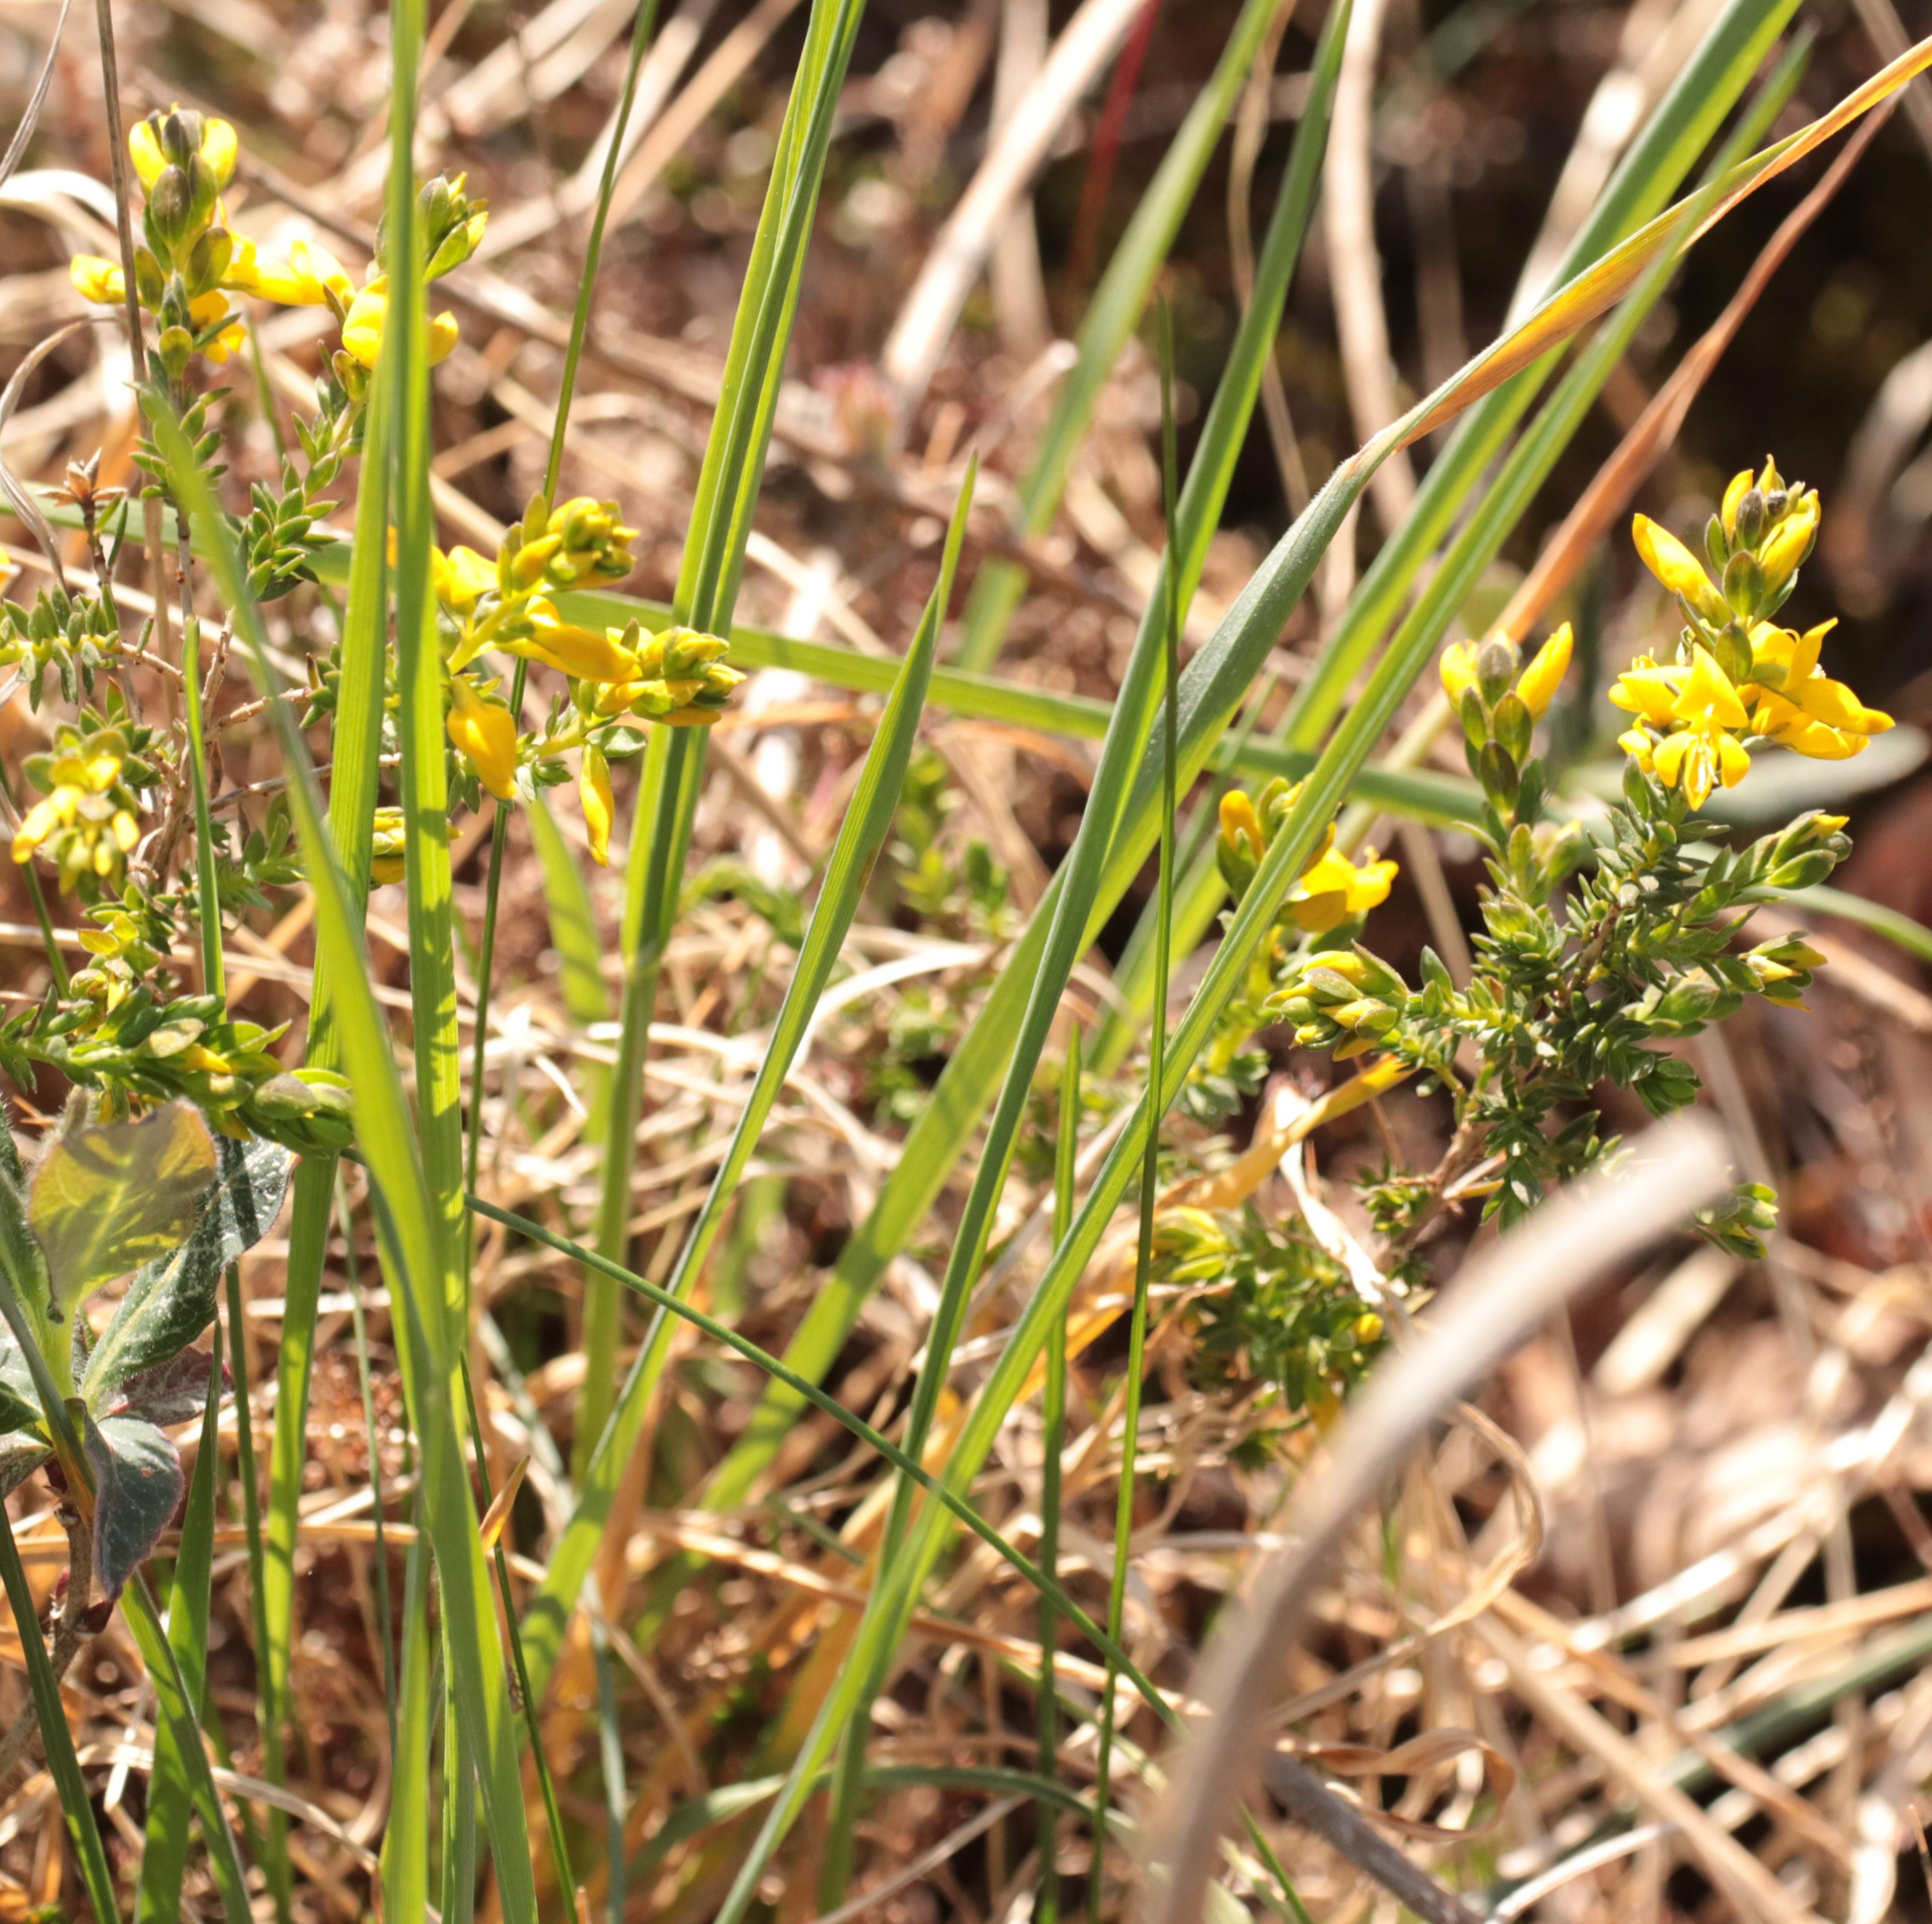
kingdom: Plantae
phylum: Tracheophyta
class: Magnoliopsida
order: Fabales
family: Fabaceae
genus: Genista
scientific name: Genista anglica
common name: Engelsk visse
